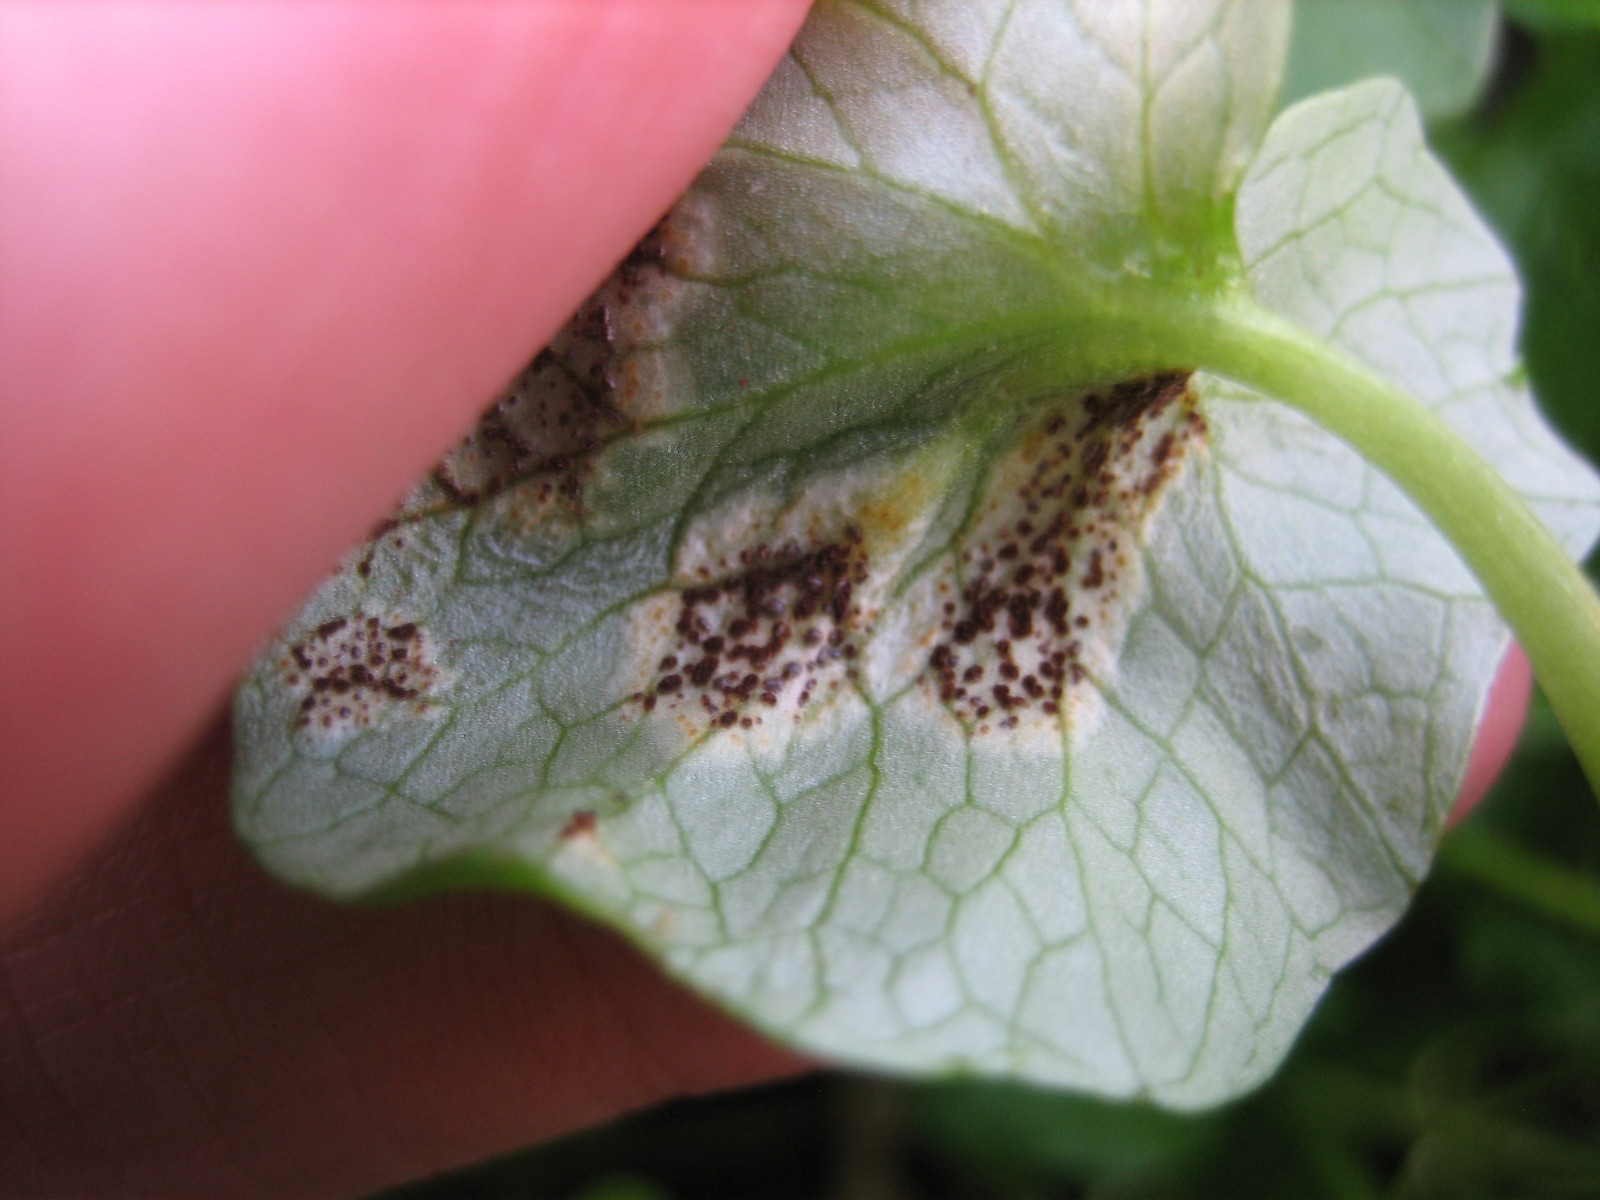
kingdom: Fungi
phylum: Basidiomycota
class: Pucciniomycetes
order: Pucciniales
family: Pucciniaceae
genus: Uromyces
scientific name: Uromyces ficariae
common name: vorterod-encellerust
